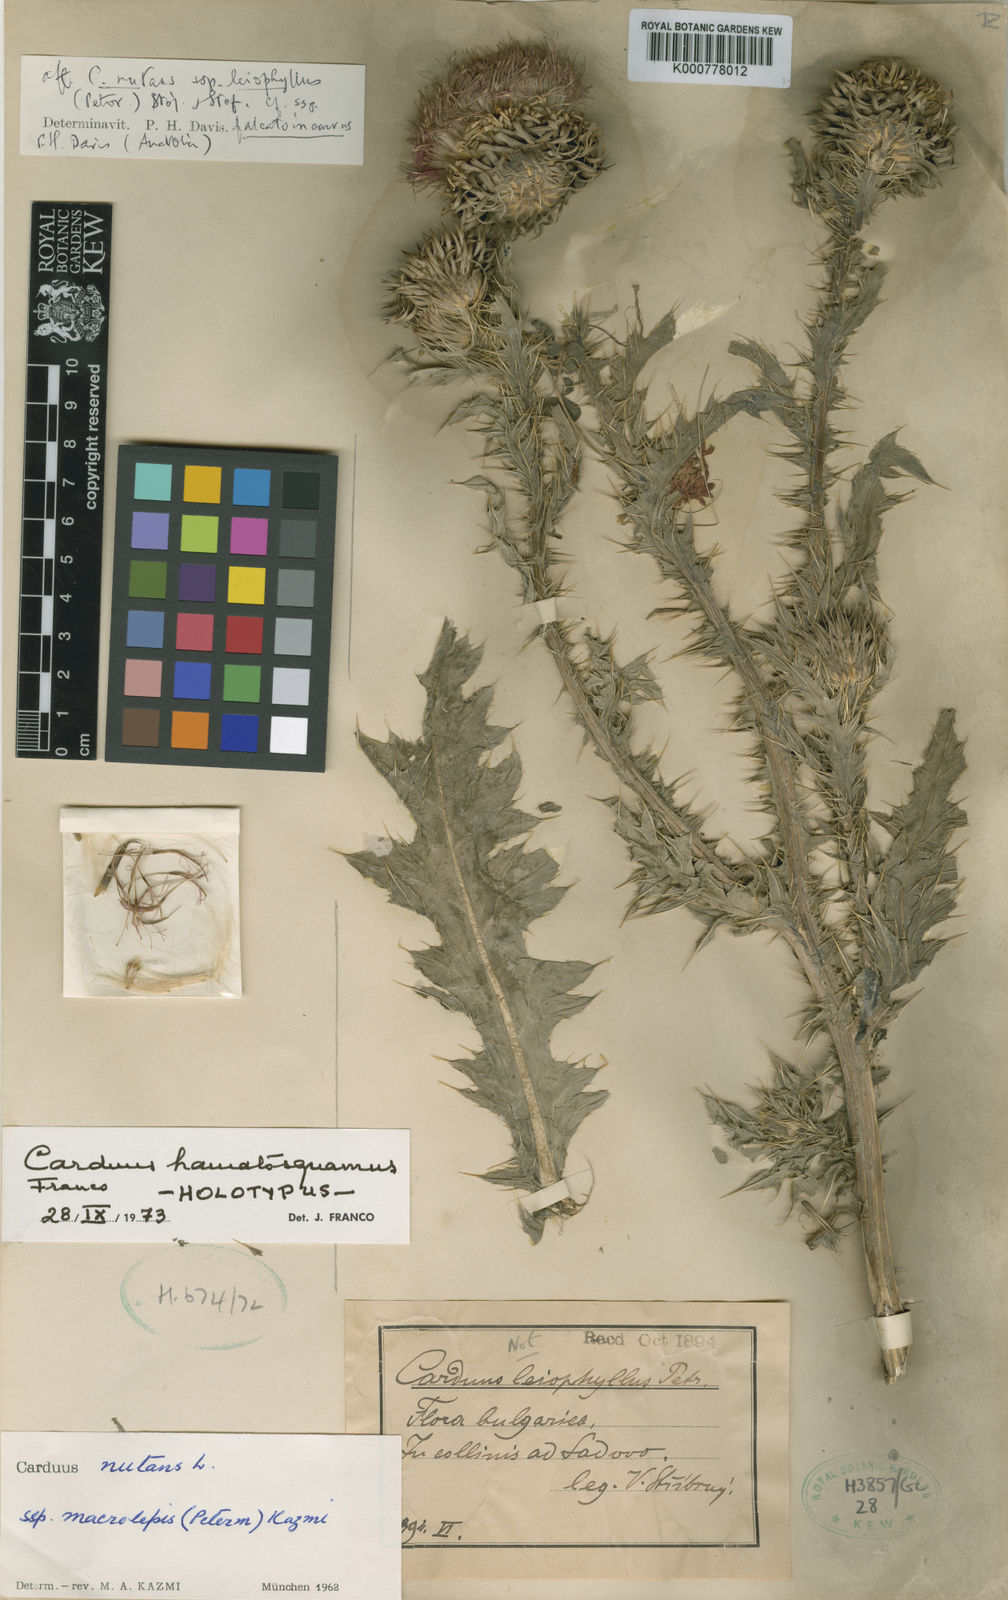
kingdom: Plantae
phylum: Tracheophyta
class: Magnoliopsida
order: Asterales
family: Asteraceae
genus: Carduus
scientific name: Carduus
